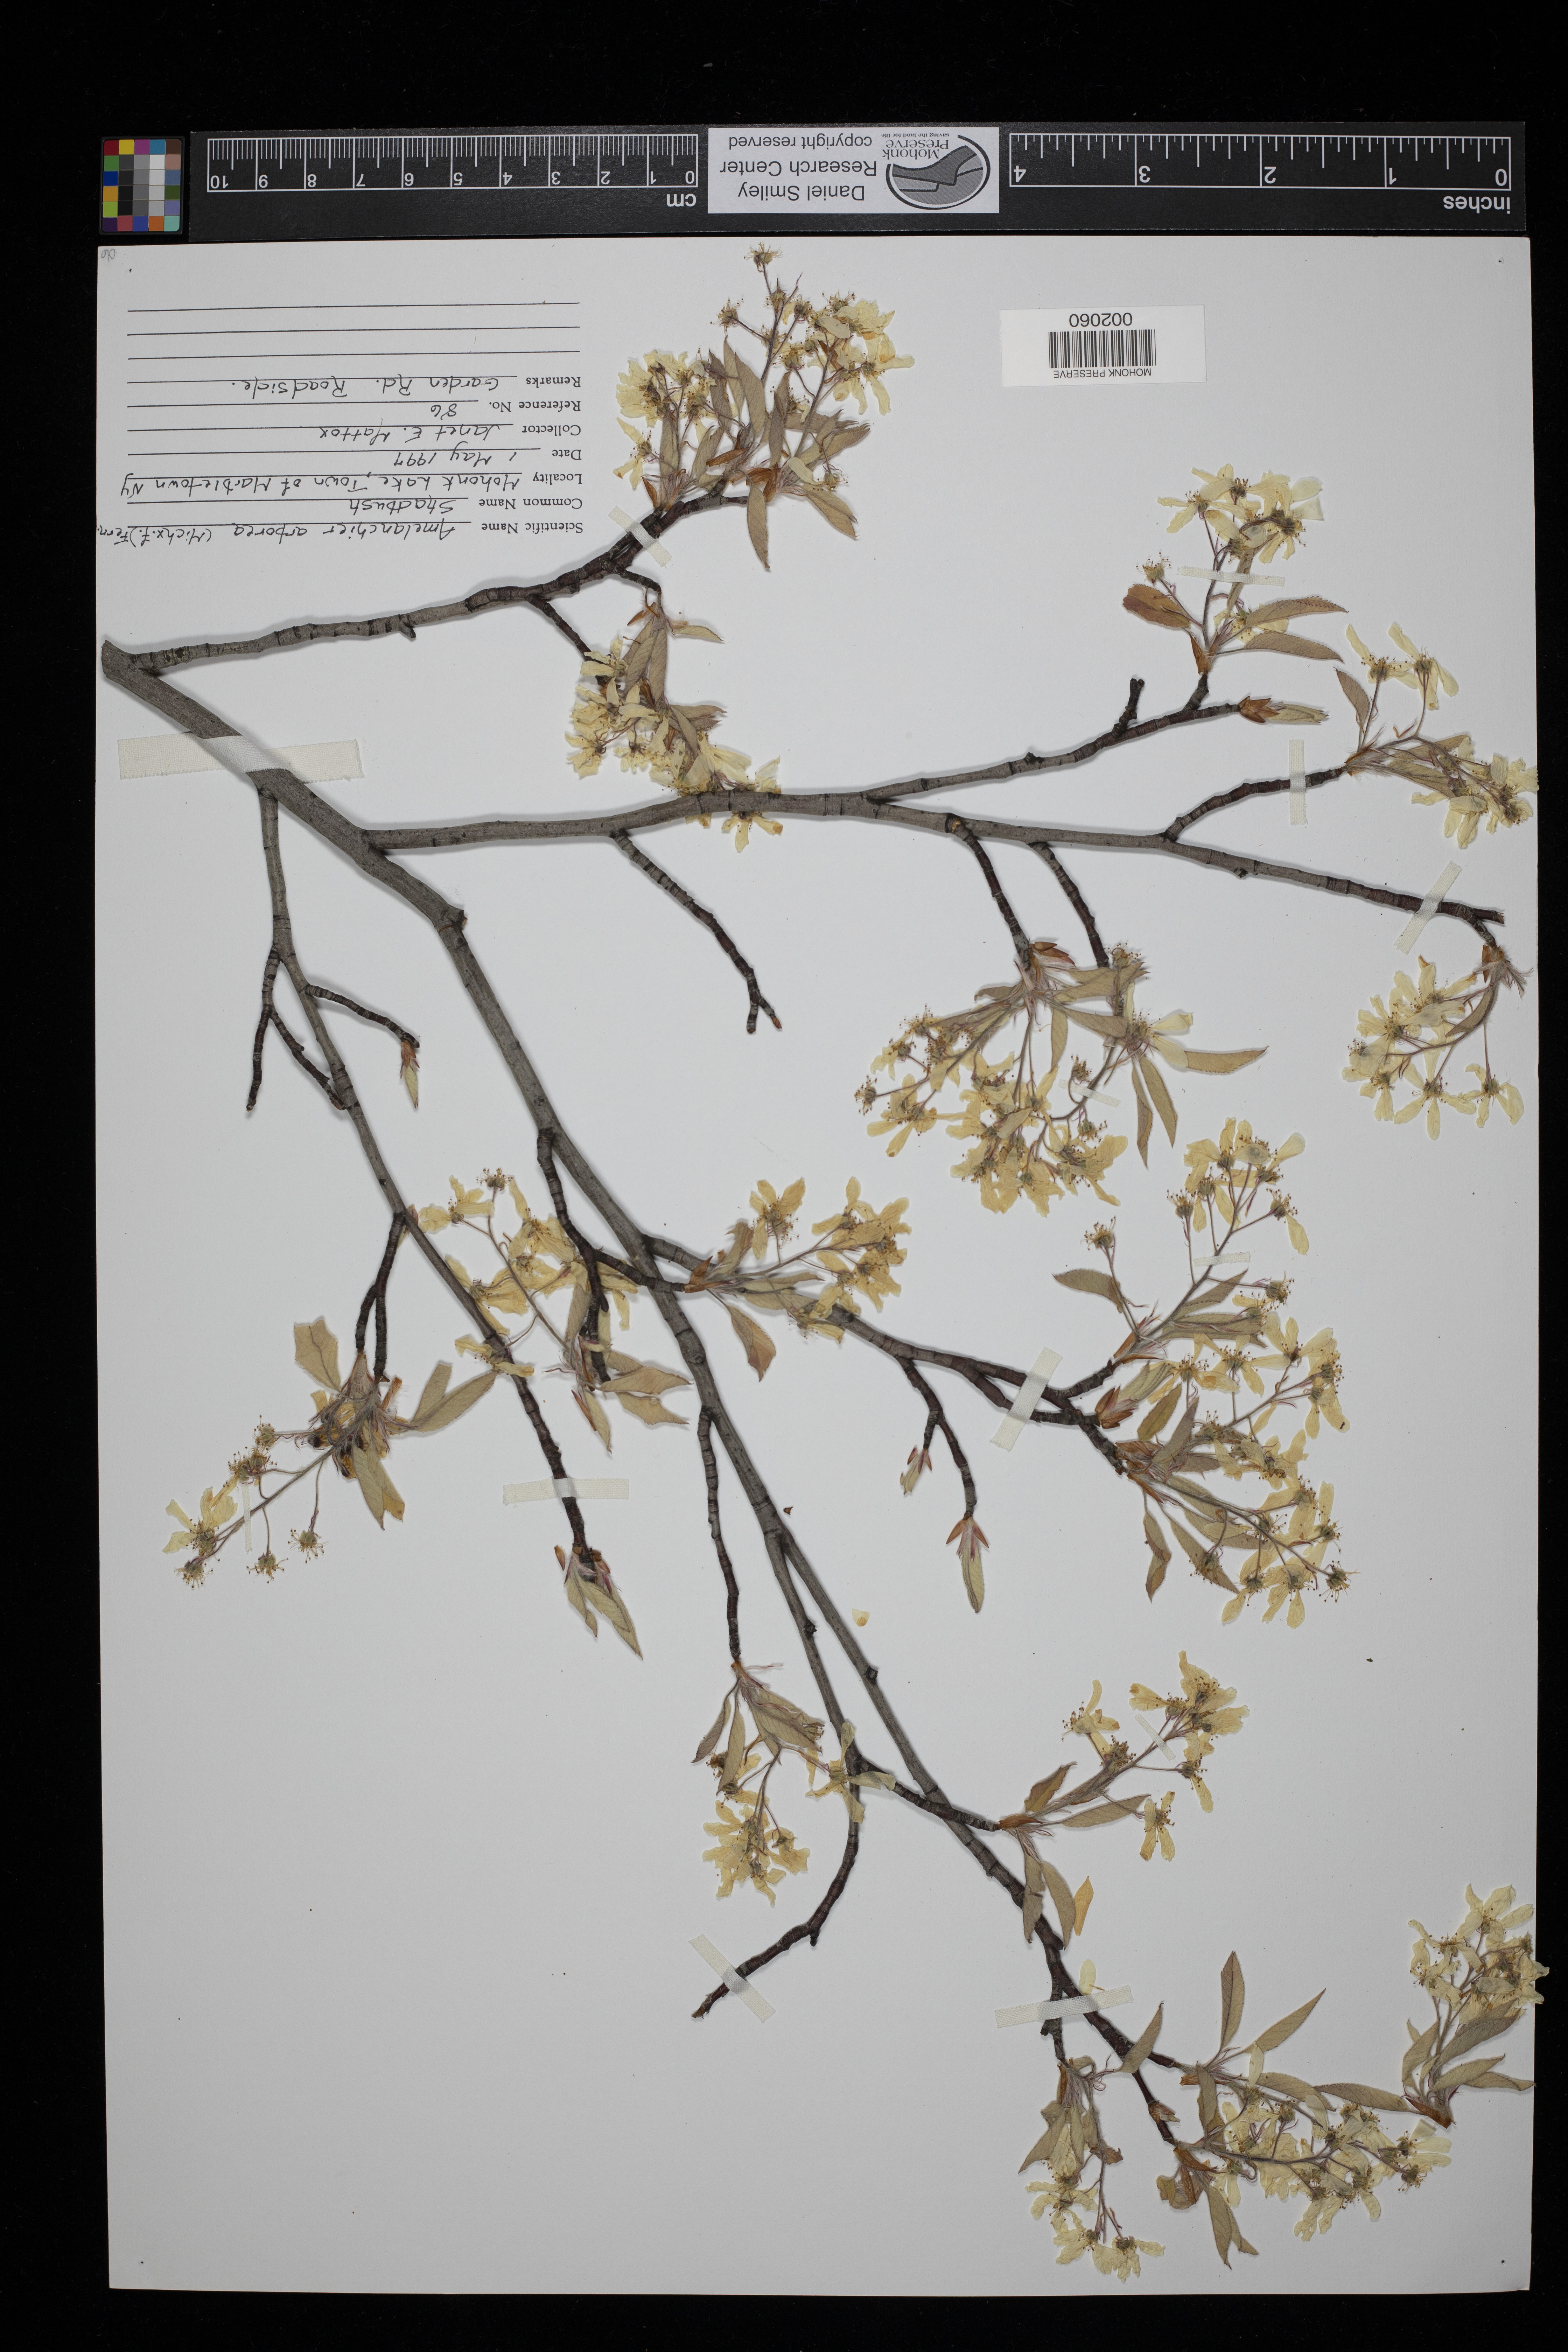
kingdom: Plantae
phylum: Tracheophyta
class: Magnoliopsida
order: Rosales
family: Rosaceae
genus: Amelanchier
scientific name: Amelanchier arborea
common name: Downy serviceberry
